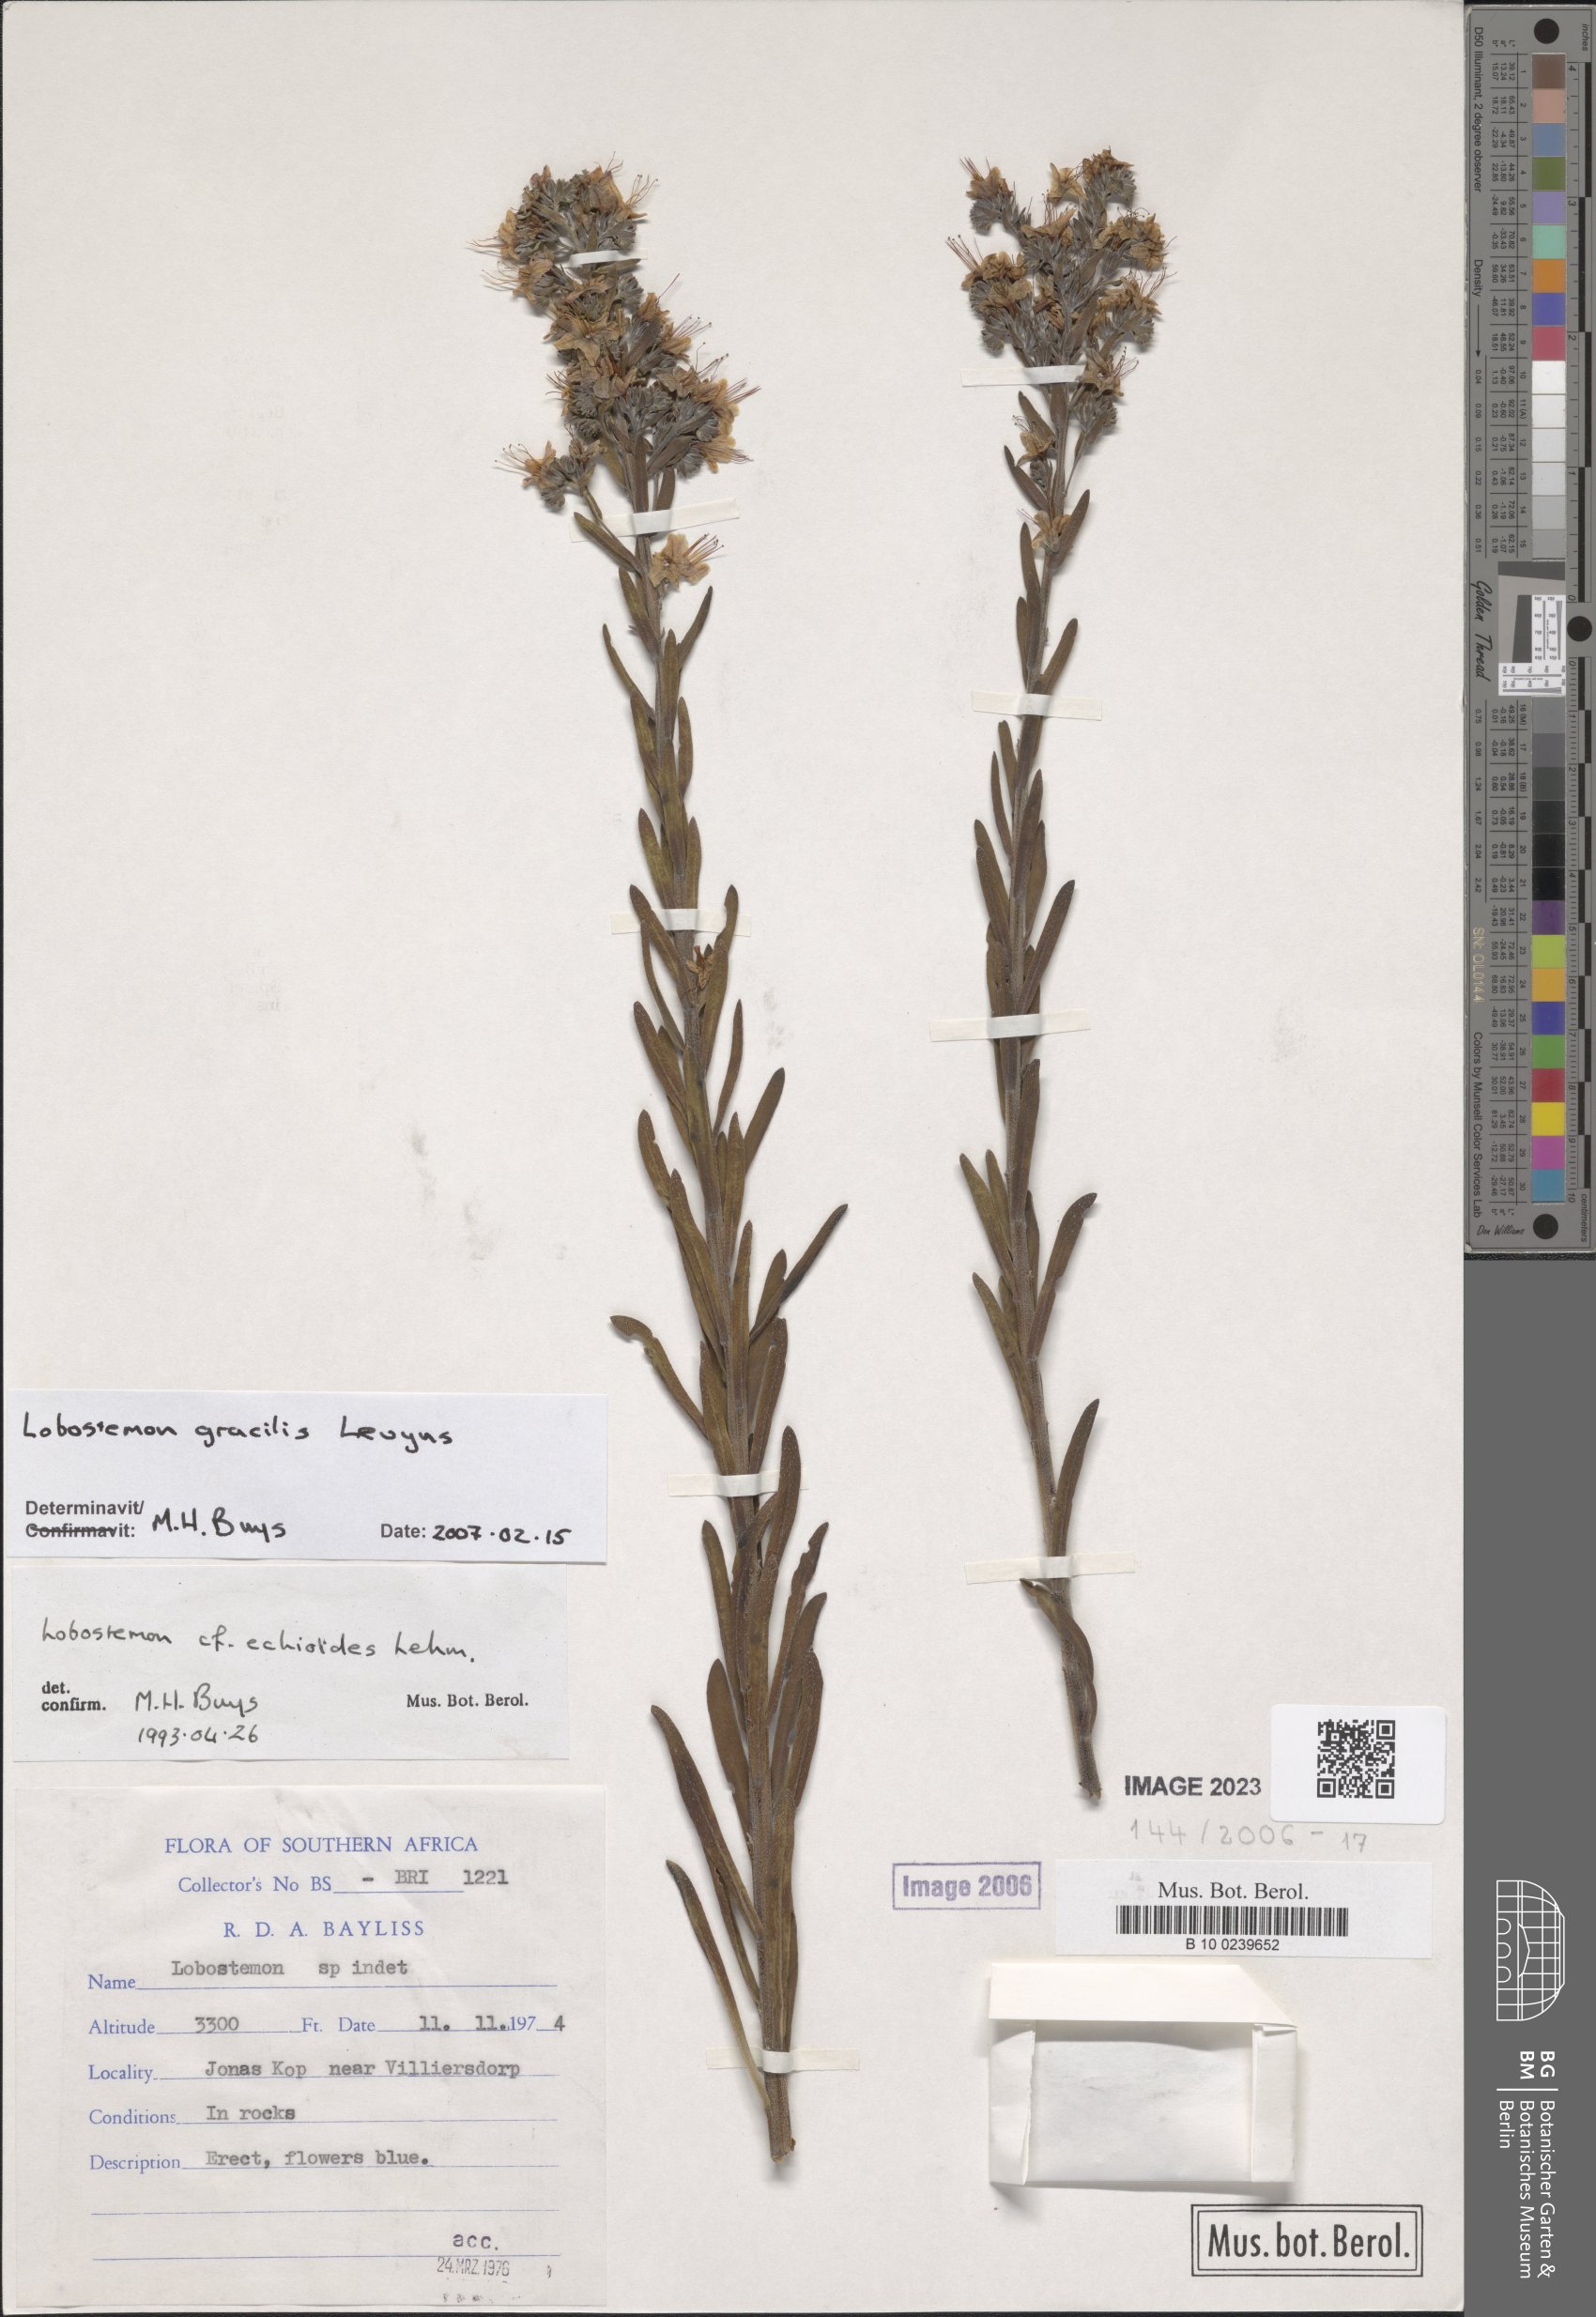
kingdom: Plantae
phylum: Tracheophyta
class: Magnoliopsida
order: Boraginales
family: Boraginaceae
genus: Lobostemon
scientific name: Lobostemon echioides
